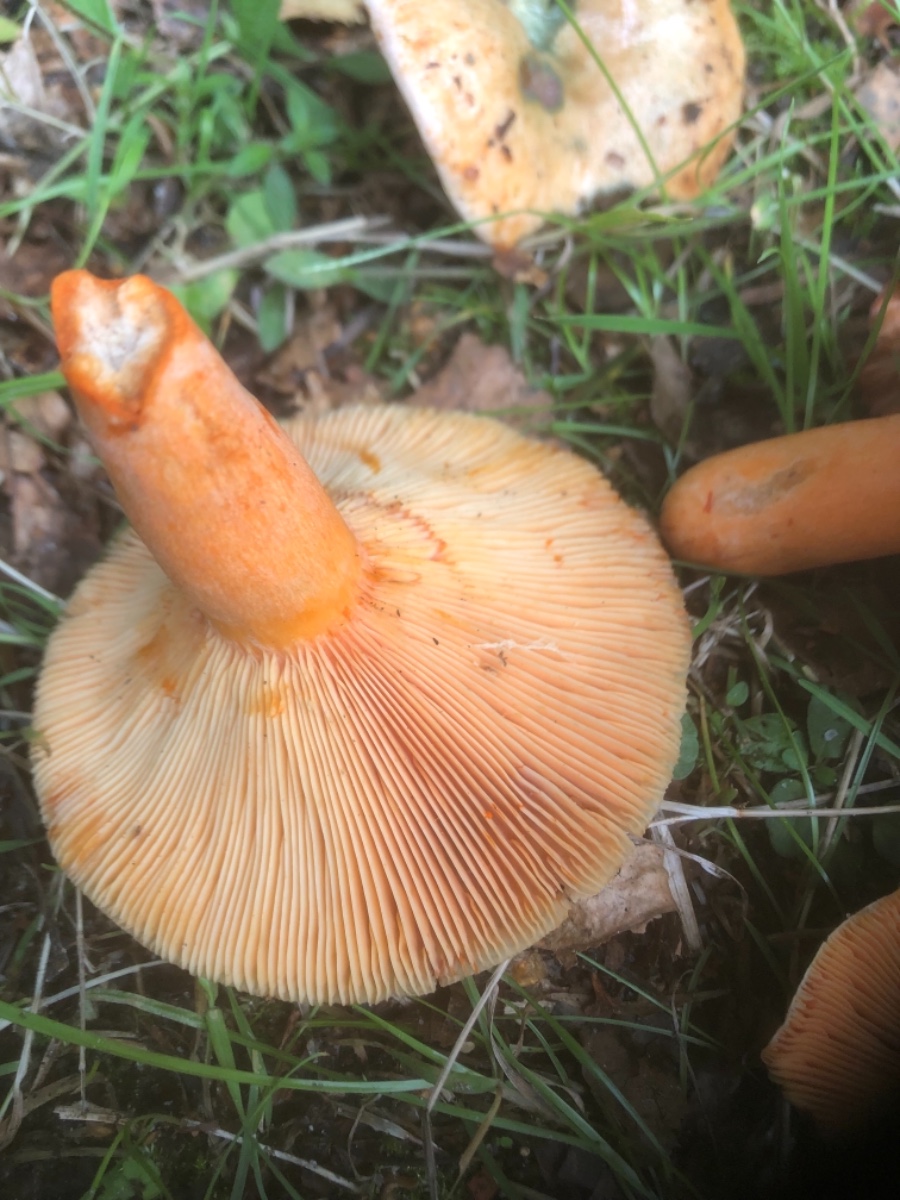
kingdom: Fungi
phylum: Basidiomycota
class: Agaricomycetes
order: Russulales
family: Russulaceae
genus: Lactarius
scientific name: Lactarius deterrimus
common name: gran-mælkehat
